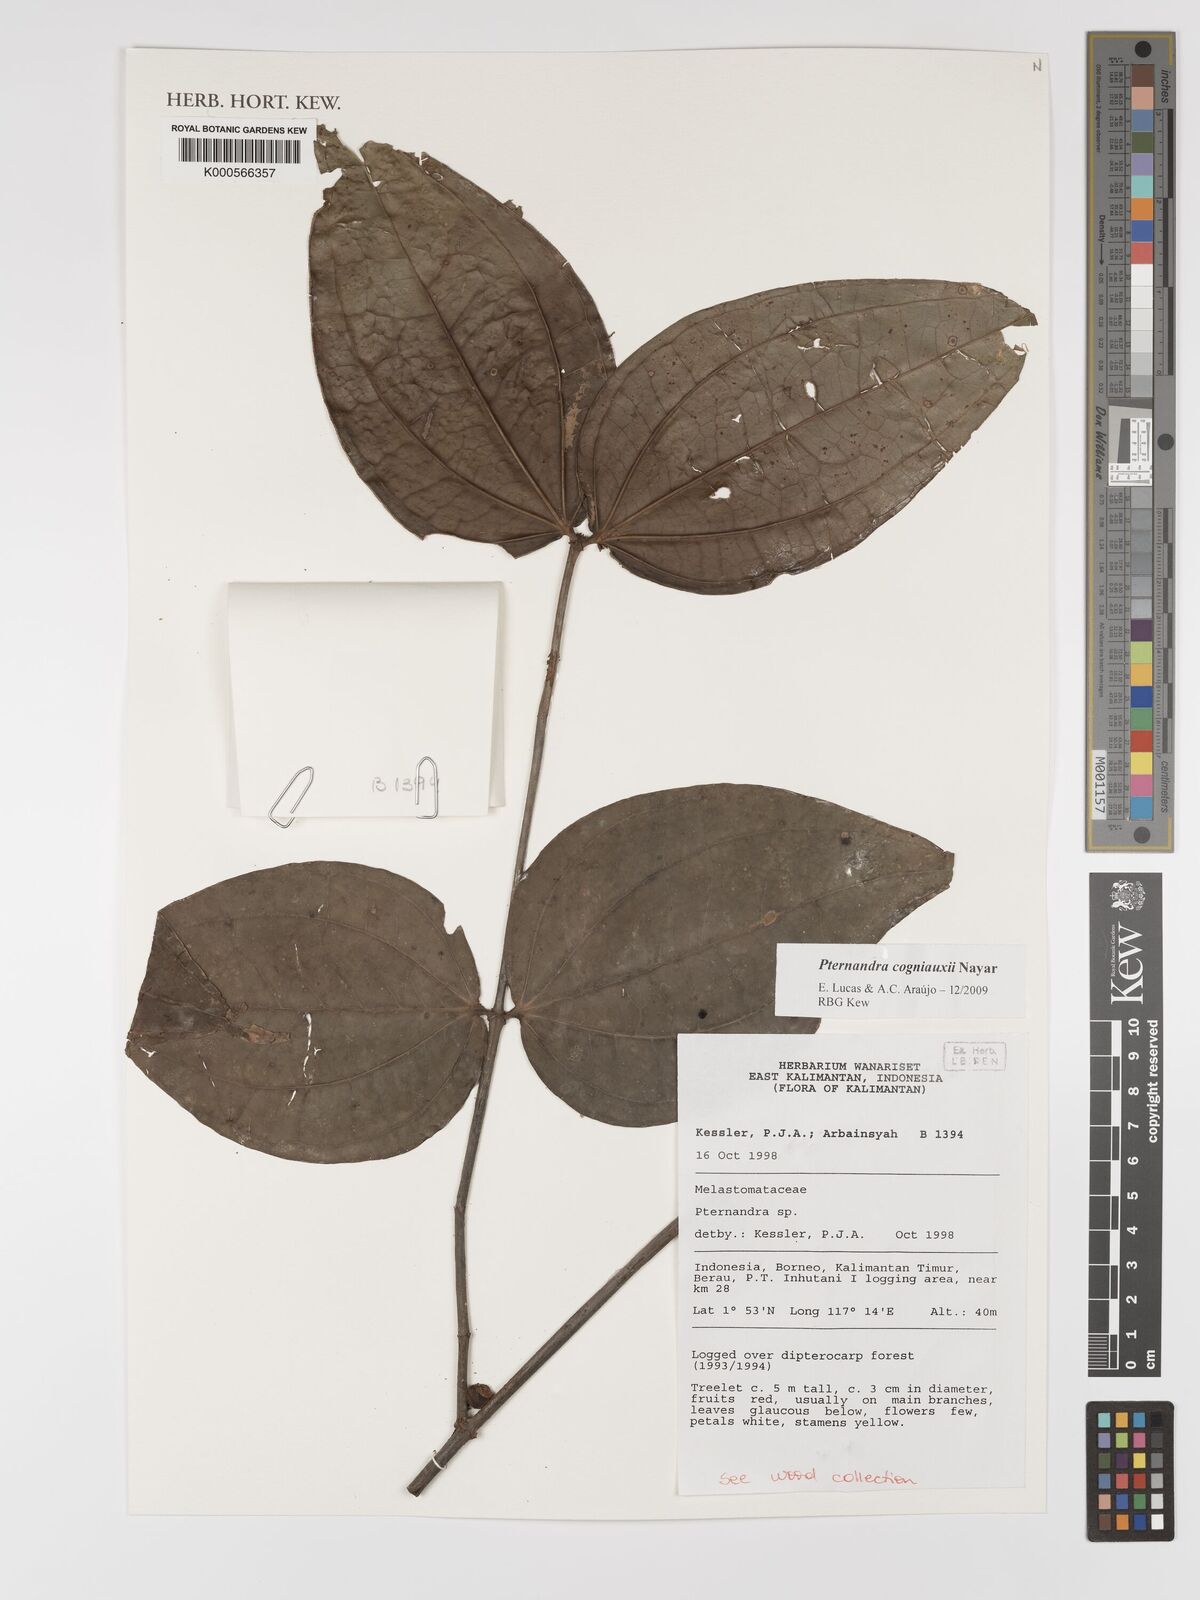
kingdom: Plantae
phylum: Tracheophyta
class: Magnoliopsida
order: Myrtales
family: Melastomataceae
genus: Pternandra
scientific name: Pternandra cogniauxii
